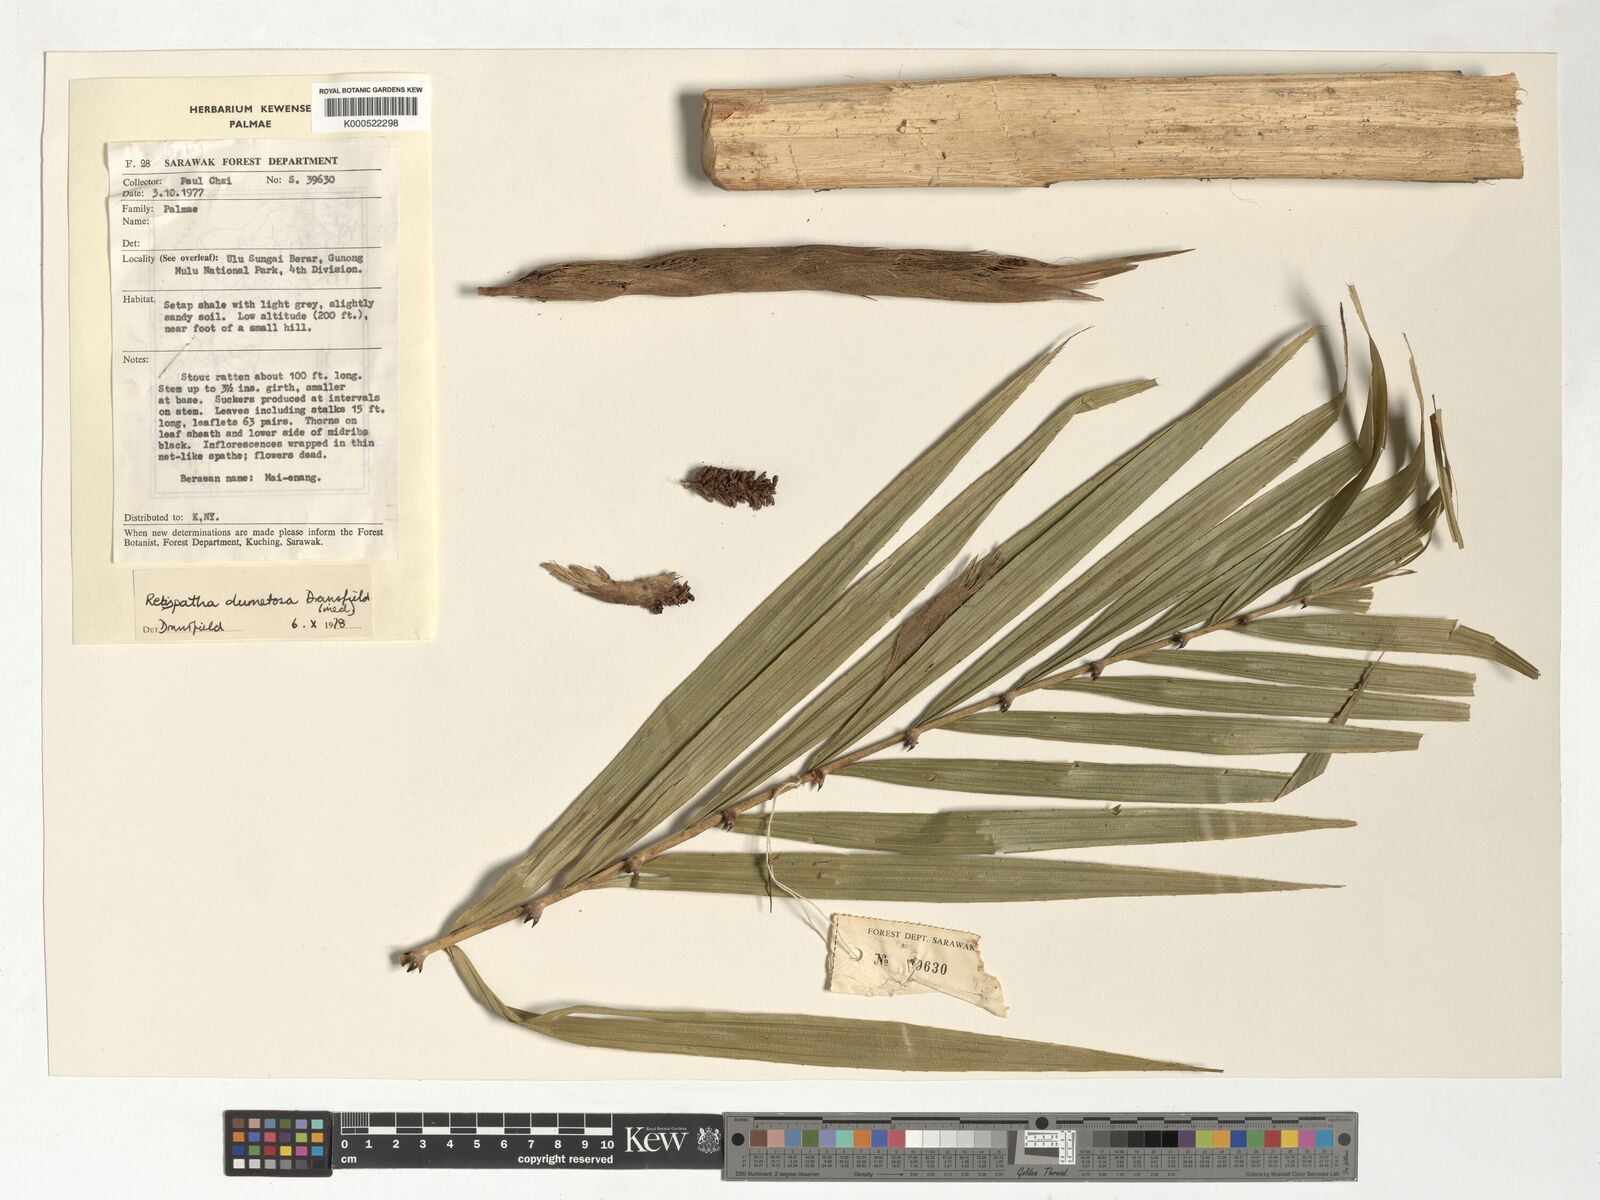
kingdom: Plantae
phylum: Tracheophyta
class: Liliopsida
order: Arecales
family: Arecaceae
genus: Calamus
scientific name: Calamus dumetosus
